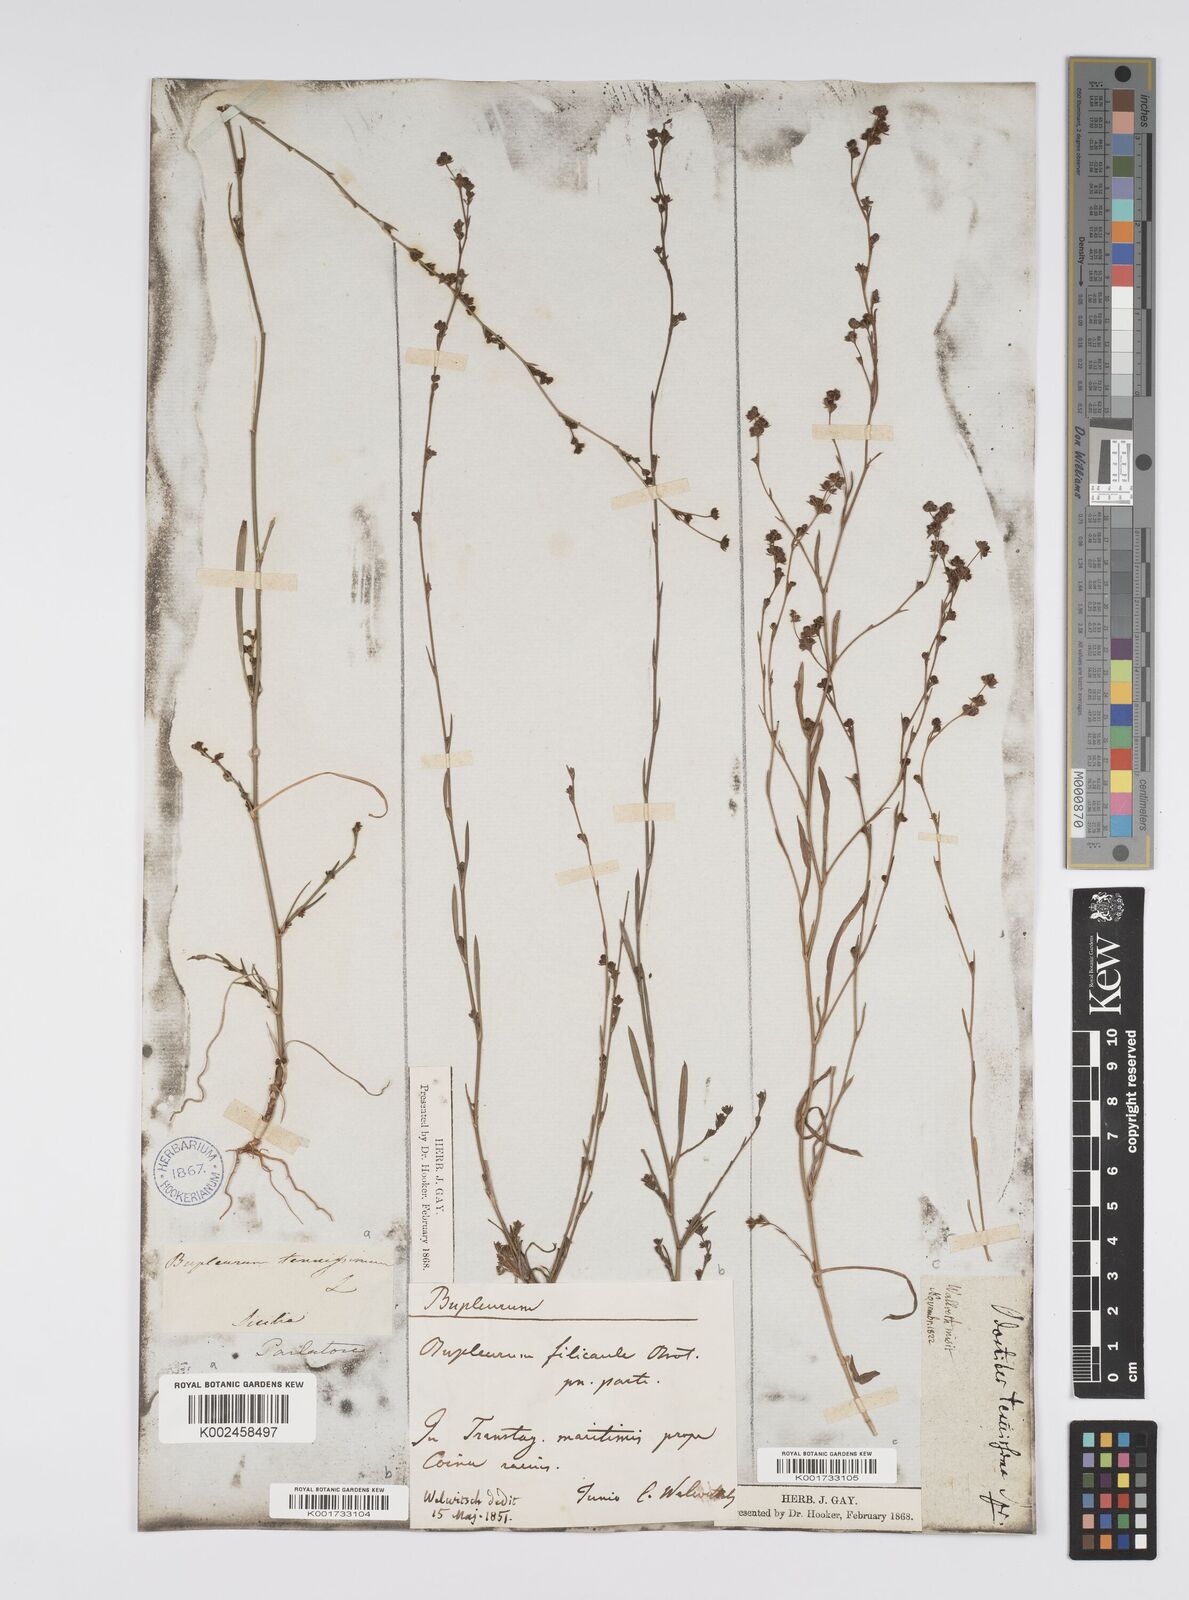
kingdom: Plantae
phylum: Tracheophyta
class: Magnoliopsida
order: Apiales
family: Apiaceae
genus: Bupleurum
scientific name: Bupleurum tenuissimum
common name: Slender hare's-ear
